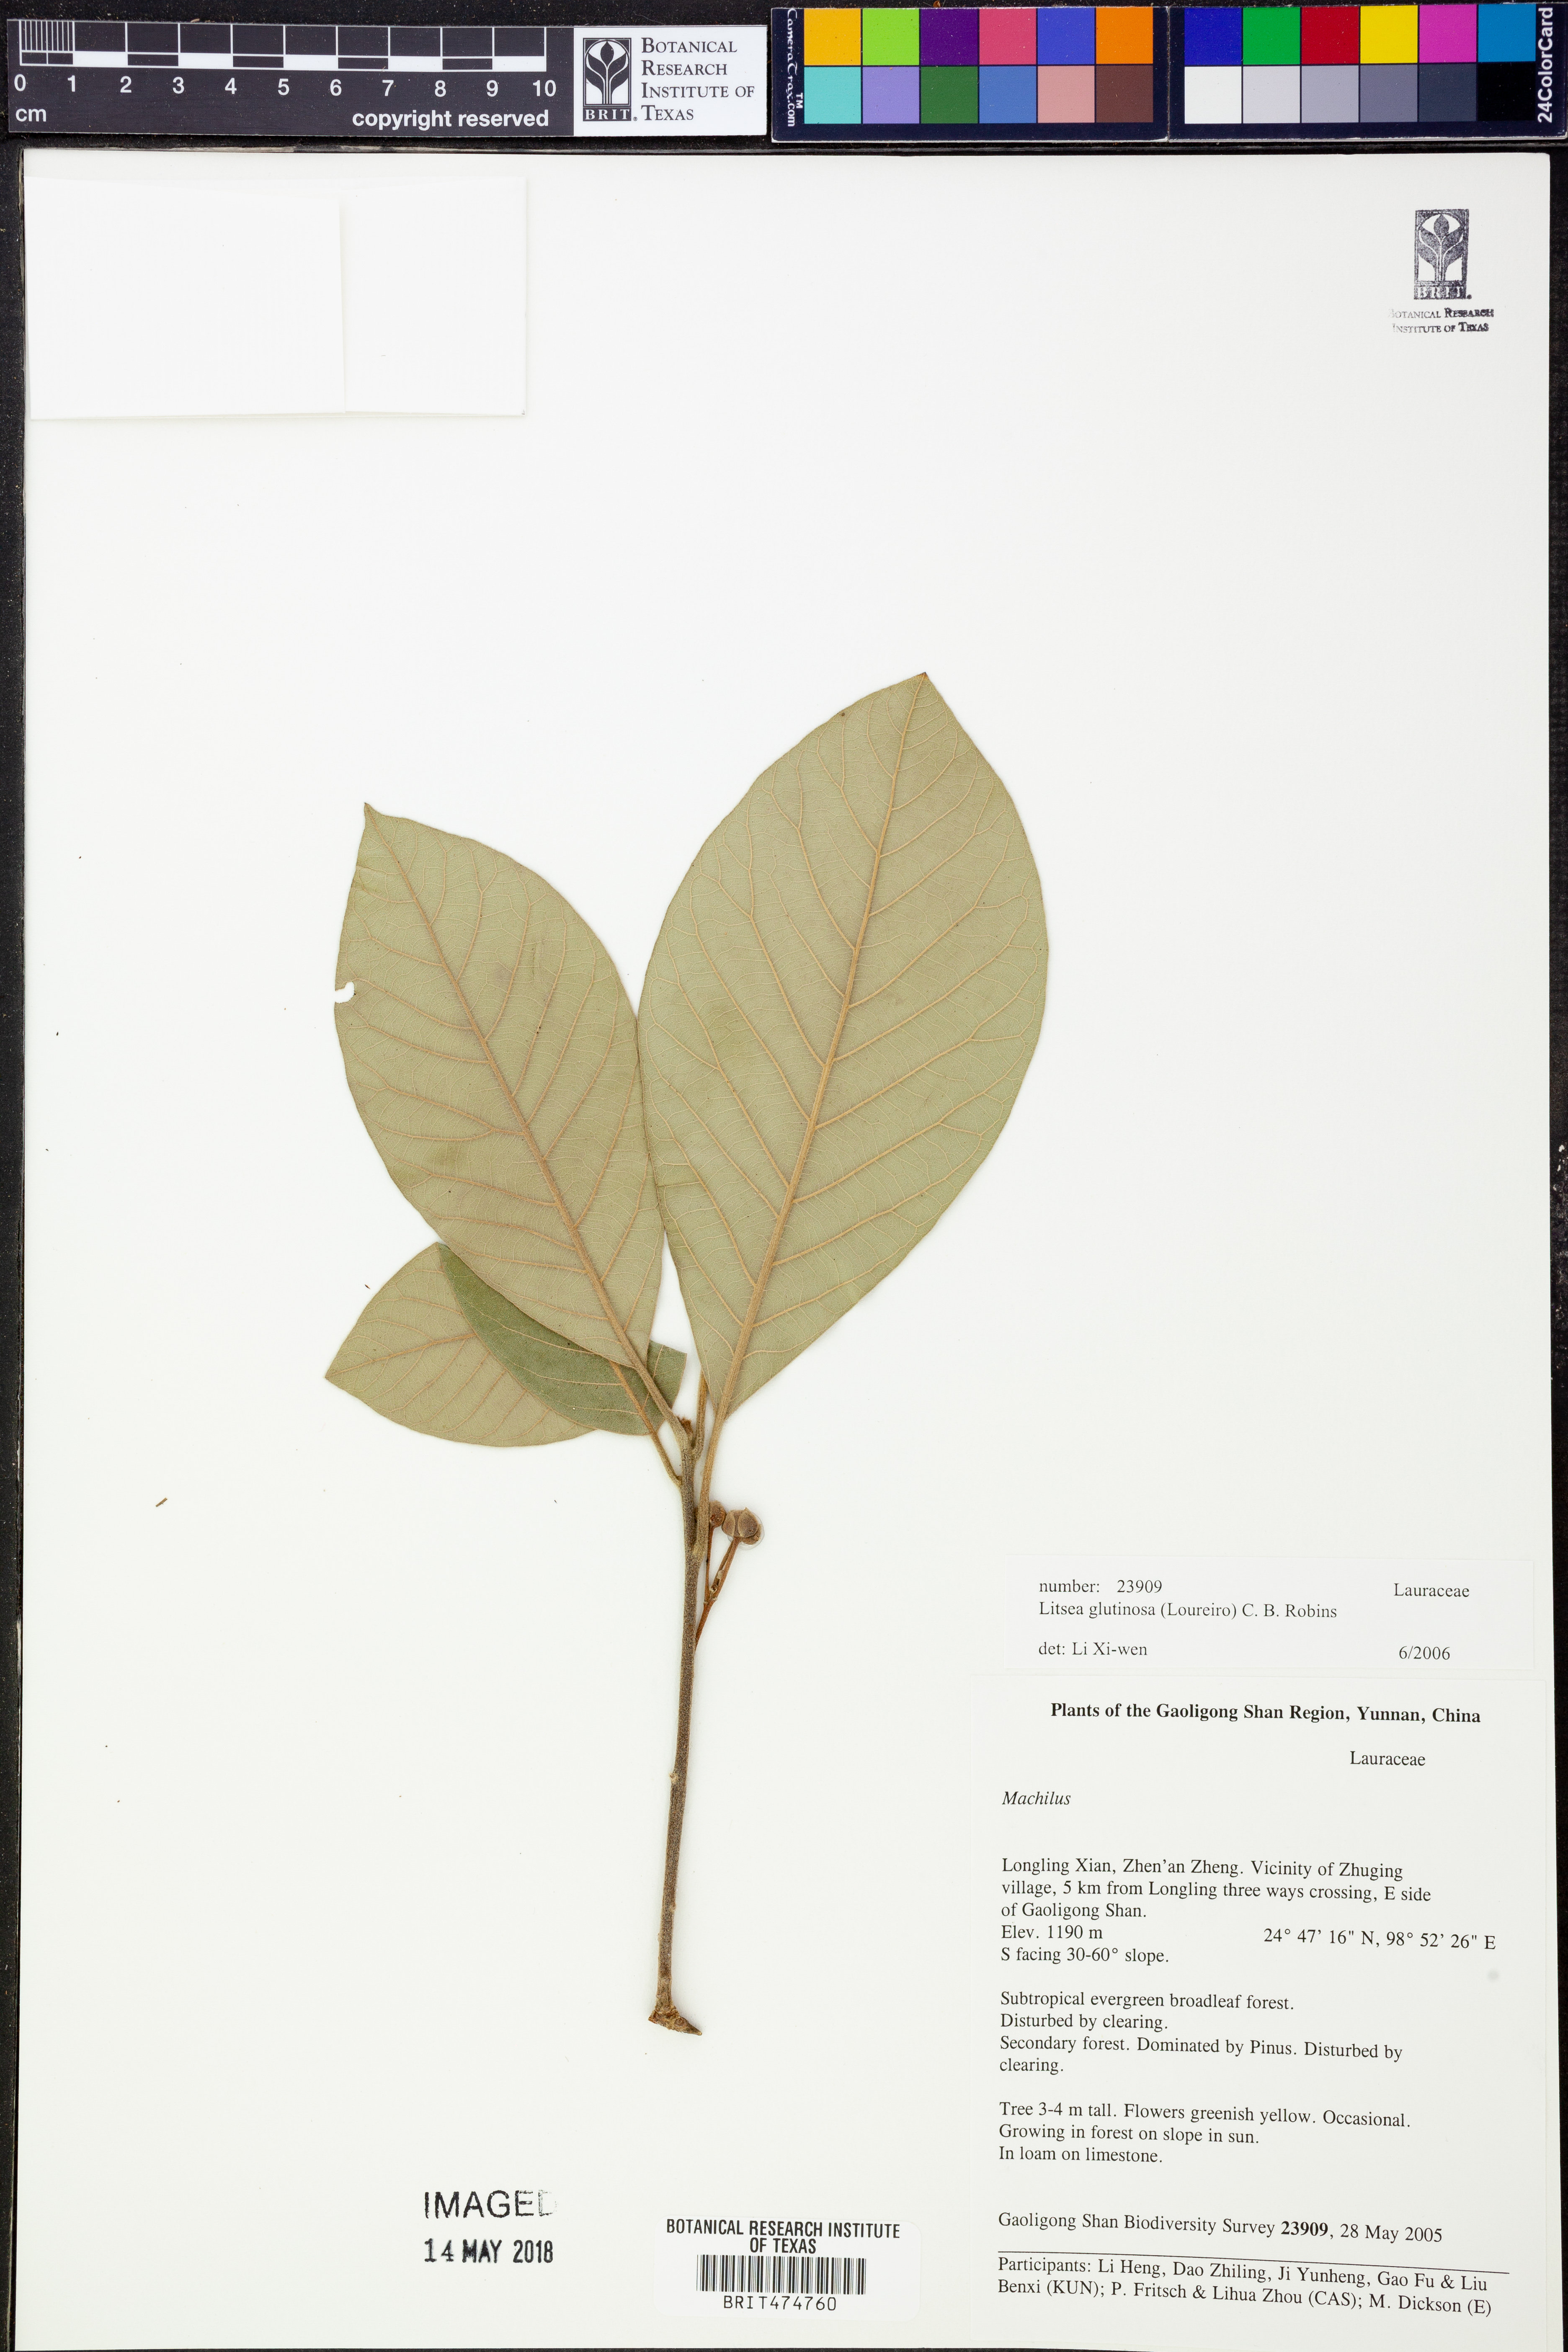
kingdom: Plantae
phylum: Tracheophyta
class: Magnoliopsida
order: Laurales
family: Lauraceae
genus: Litsea
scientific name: Litsea glutinosa
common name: Indian-laurel
